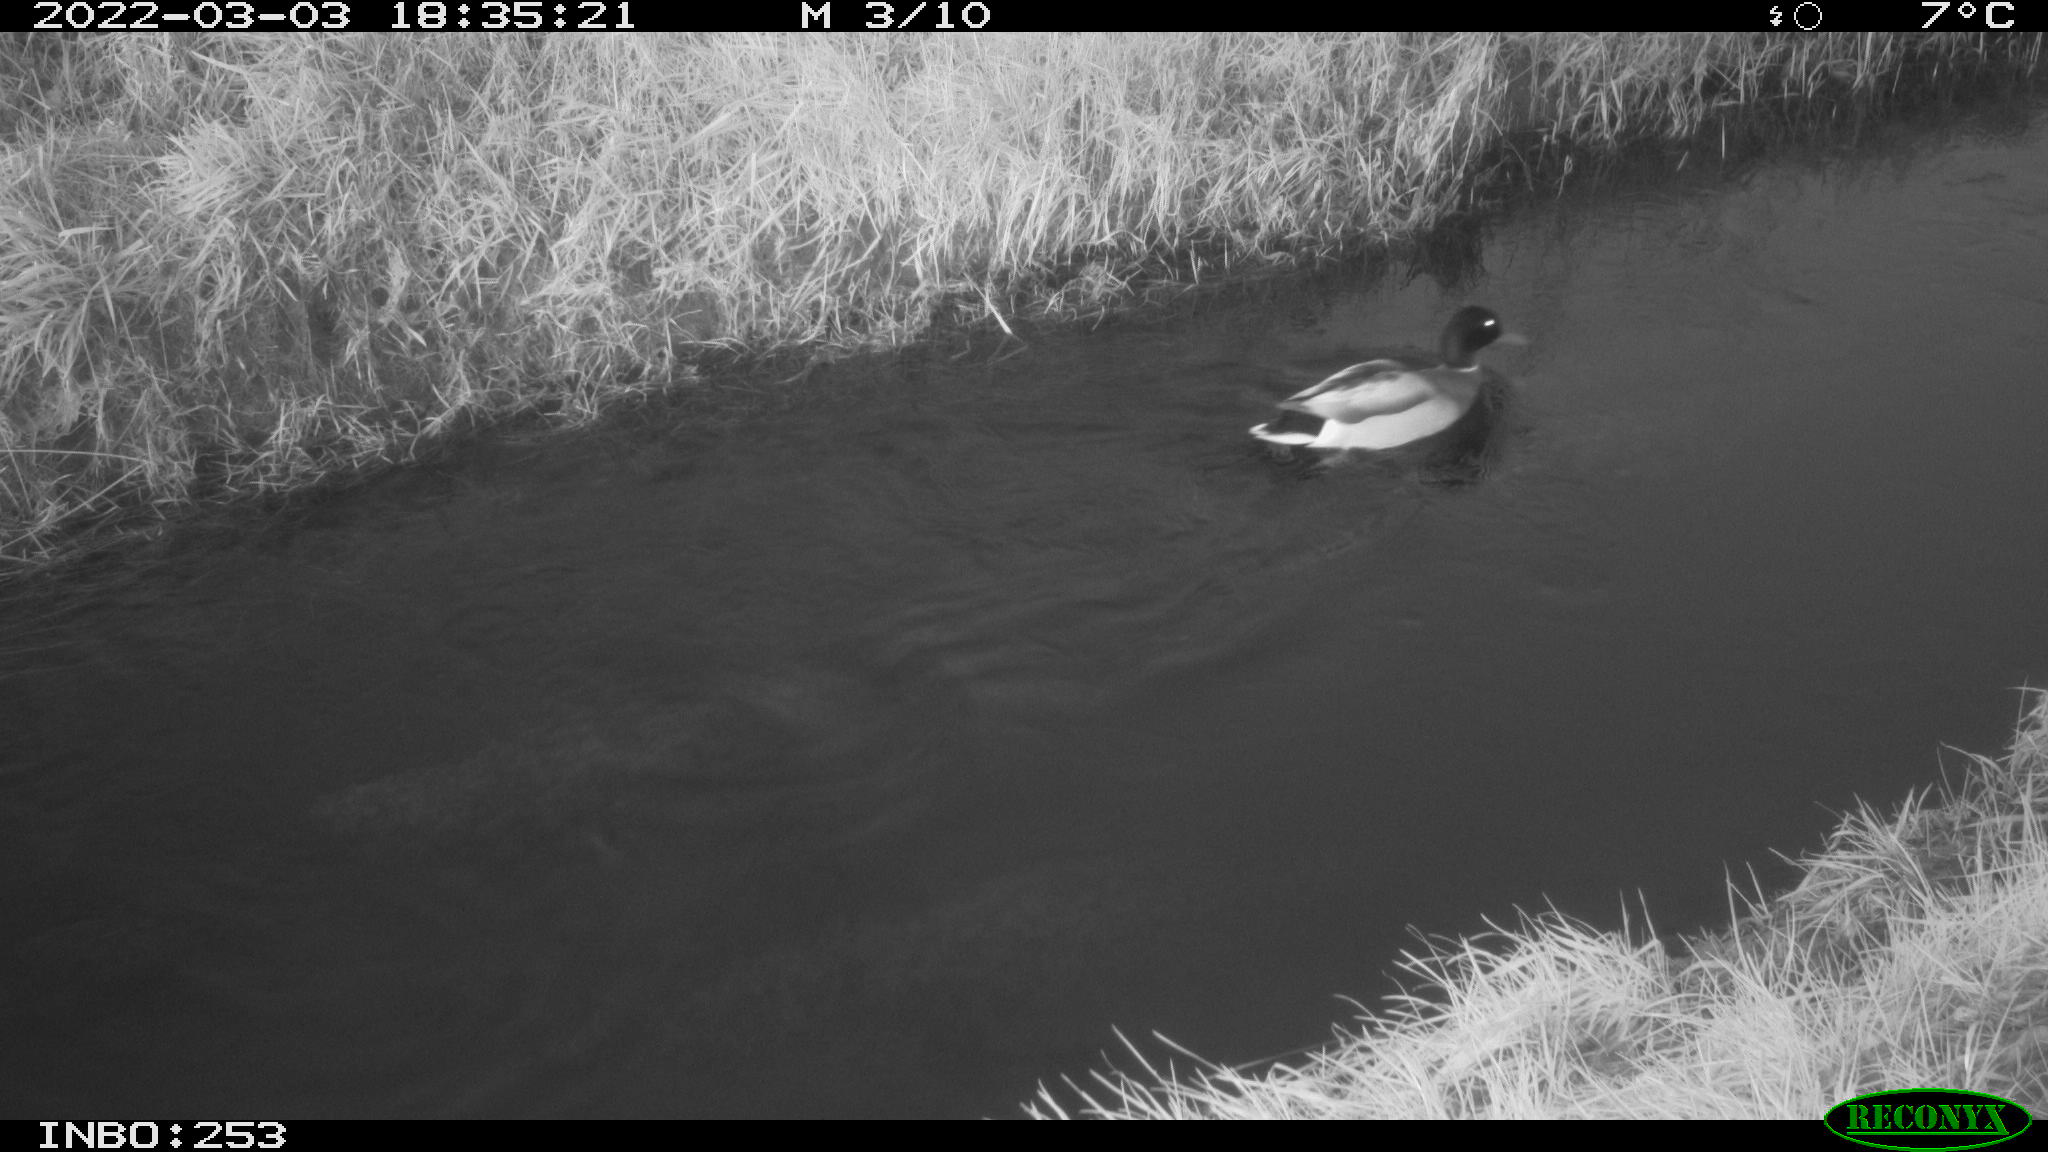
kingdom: Animalia
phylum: Chordata
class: Aves
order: Anseriformes
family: Anatidae
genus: Anas
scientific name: Anas platyrhynchos
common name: Mallard
